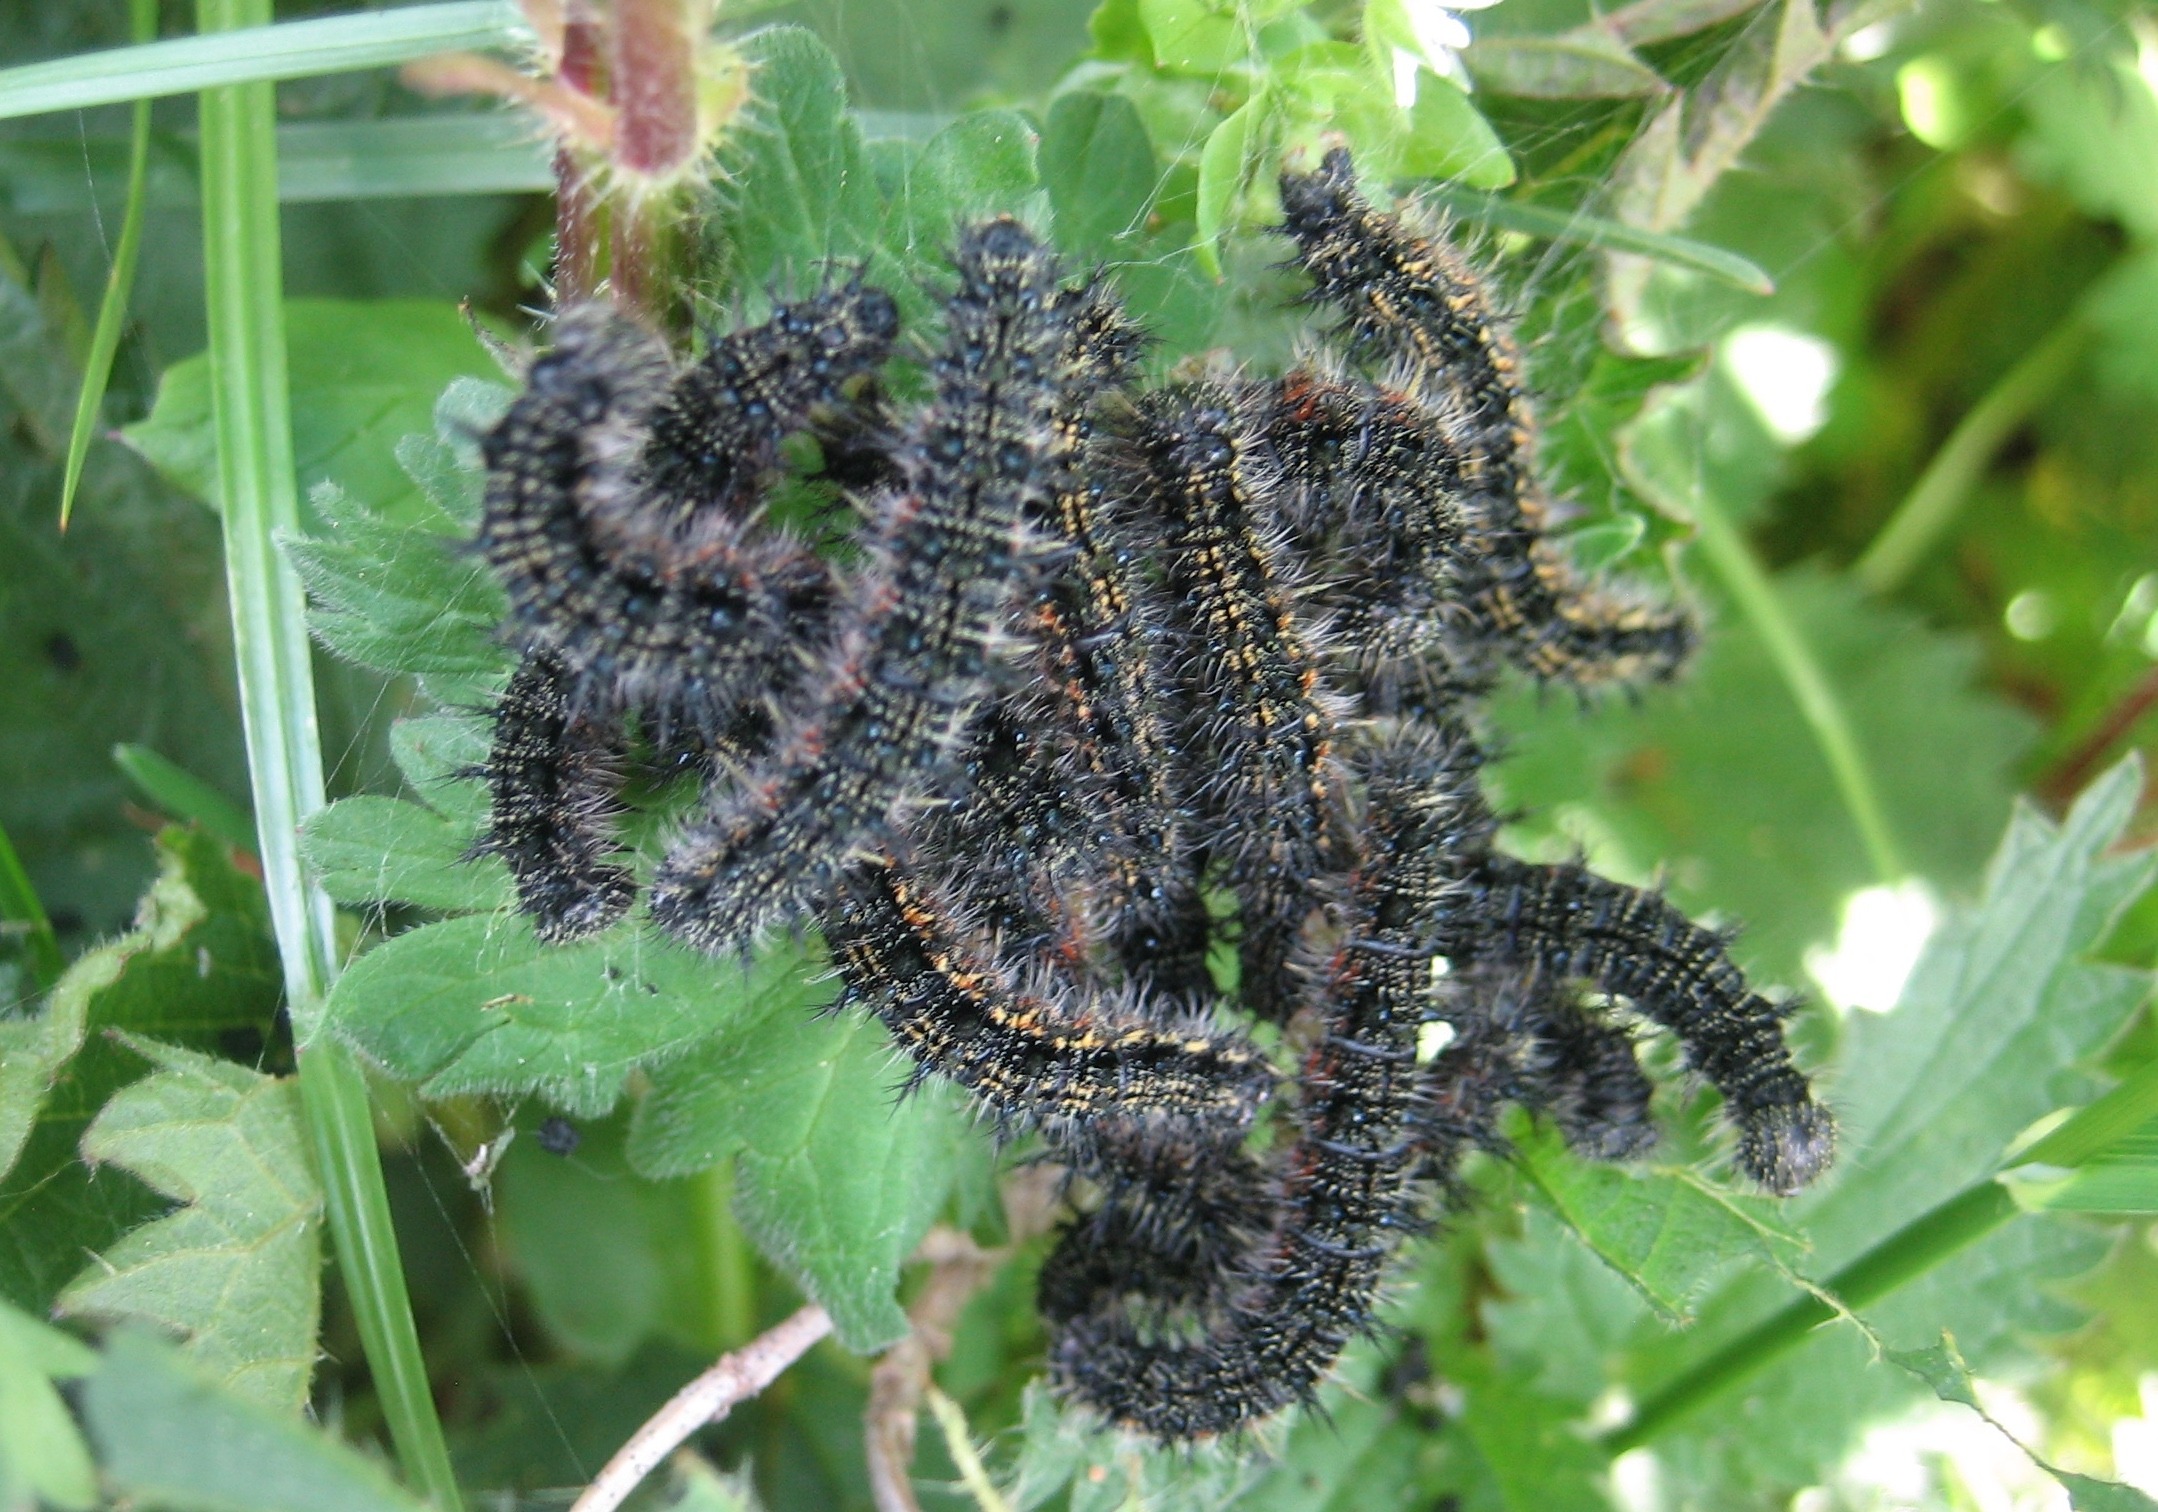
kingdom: Animalia
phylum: Arthropoda
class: Insecta
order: Lepidoptera
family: Nymphalidae
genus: Aglais
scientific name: Aglais urticae
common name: Nældens takvinge
